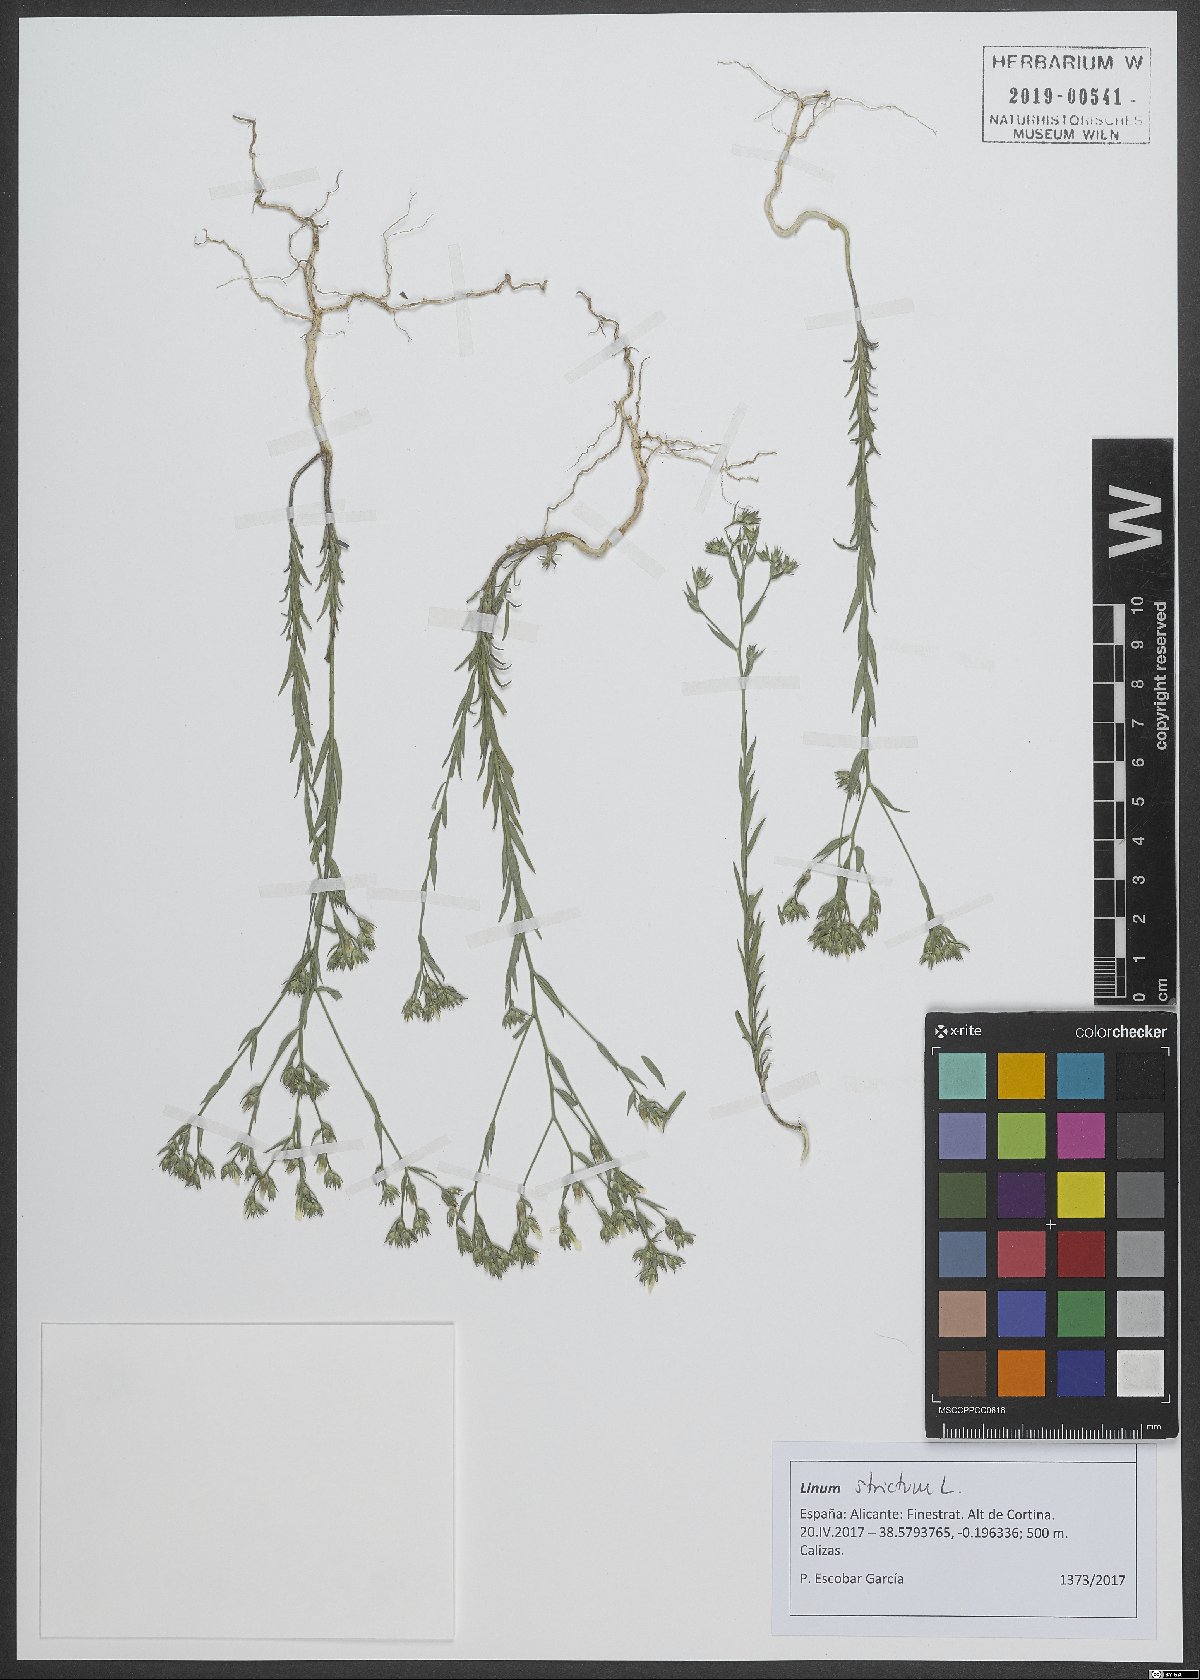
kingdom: Plantae
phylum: Tracheophyta
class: Magnoliopsida
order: Malpighiales
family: Linaceae
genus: Linum
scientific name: Linum strictum
